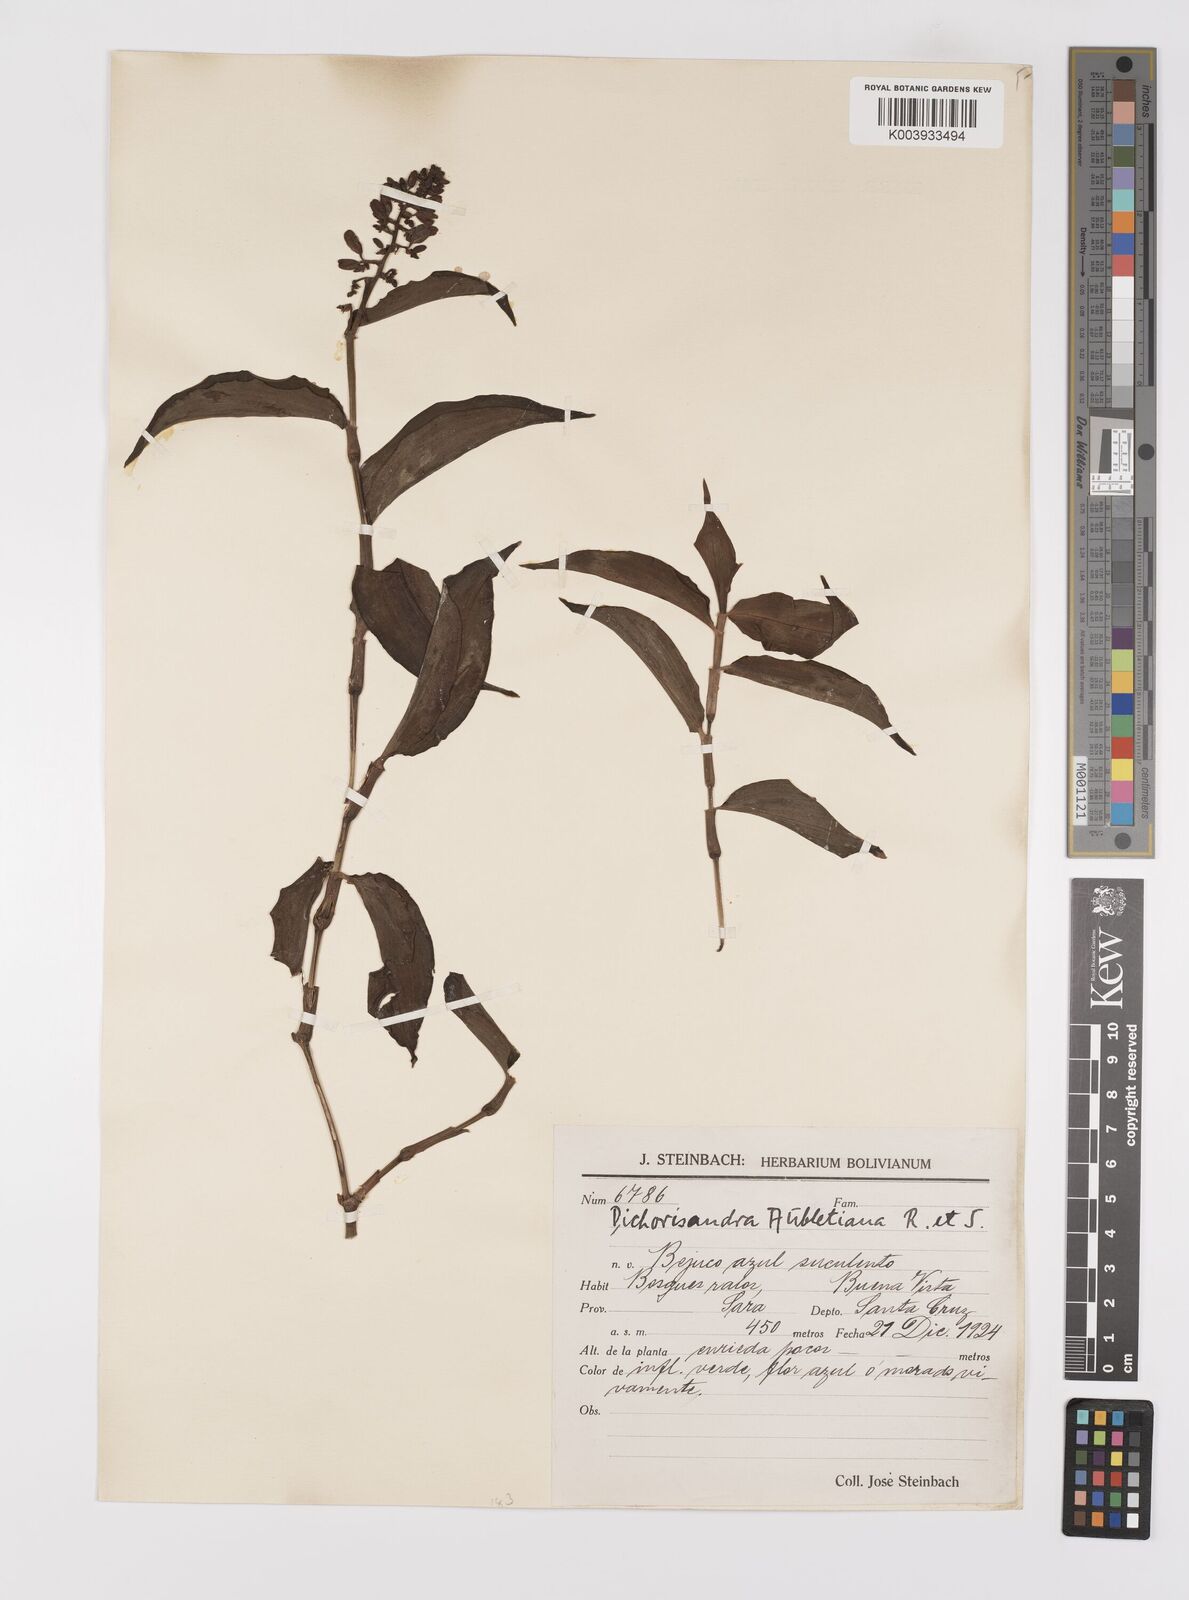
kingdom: Plantae
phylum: Tracheophyta
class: Liliopsida
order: Commelinales
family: Commelinaceae
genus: Dichorisandra
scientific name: Dichorisandra hexandra
